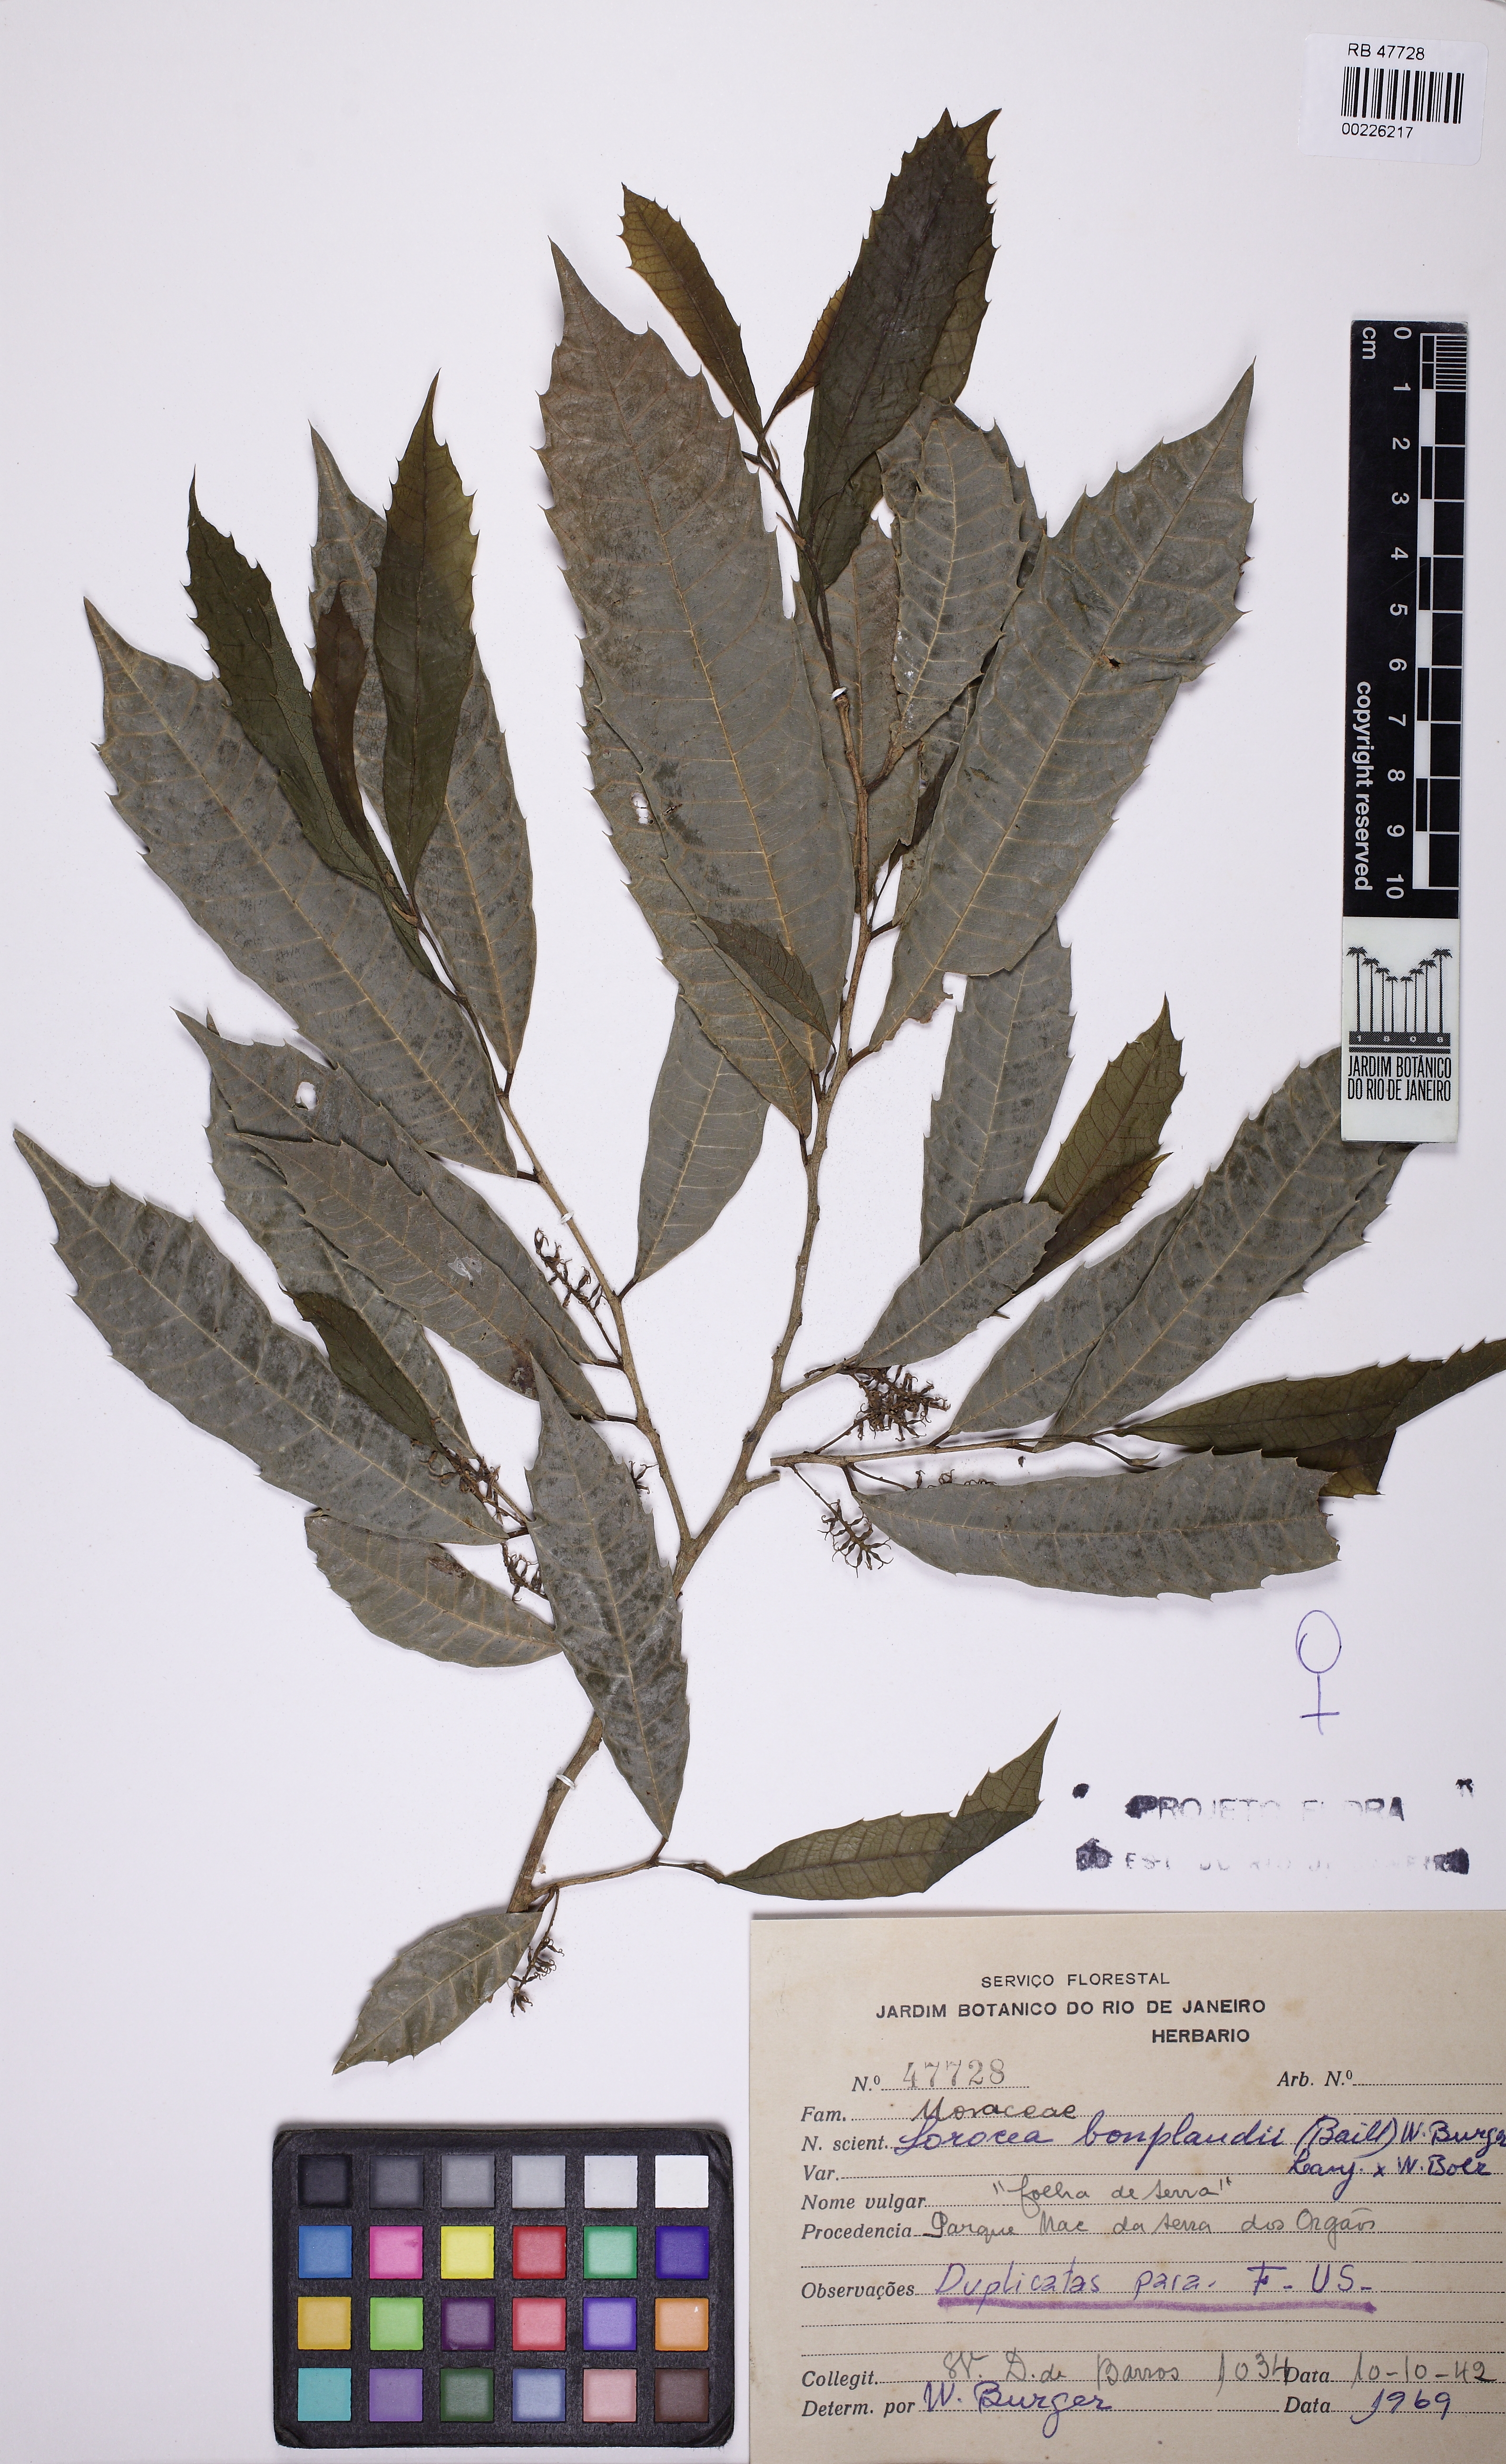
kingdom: Plantae
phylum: Tracheophyta
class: Magnoliopsida
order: Rosales
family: Moraceae
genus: Sorocea
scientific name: Sorocea bonplandii
